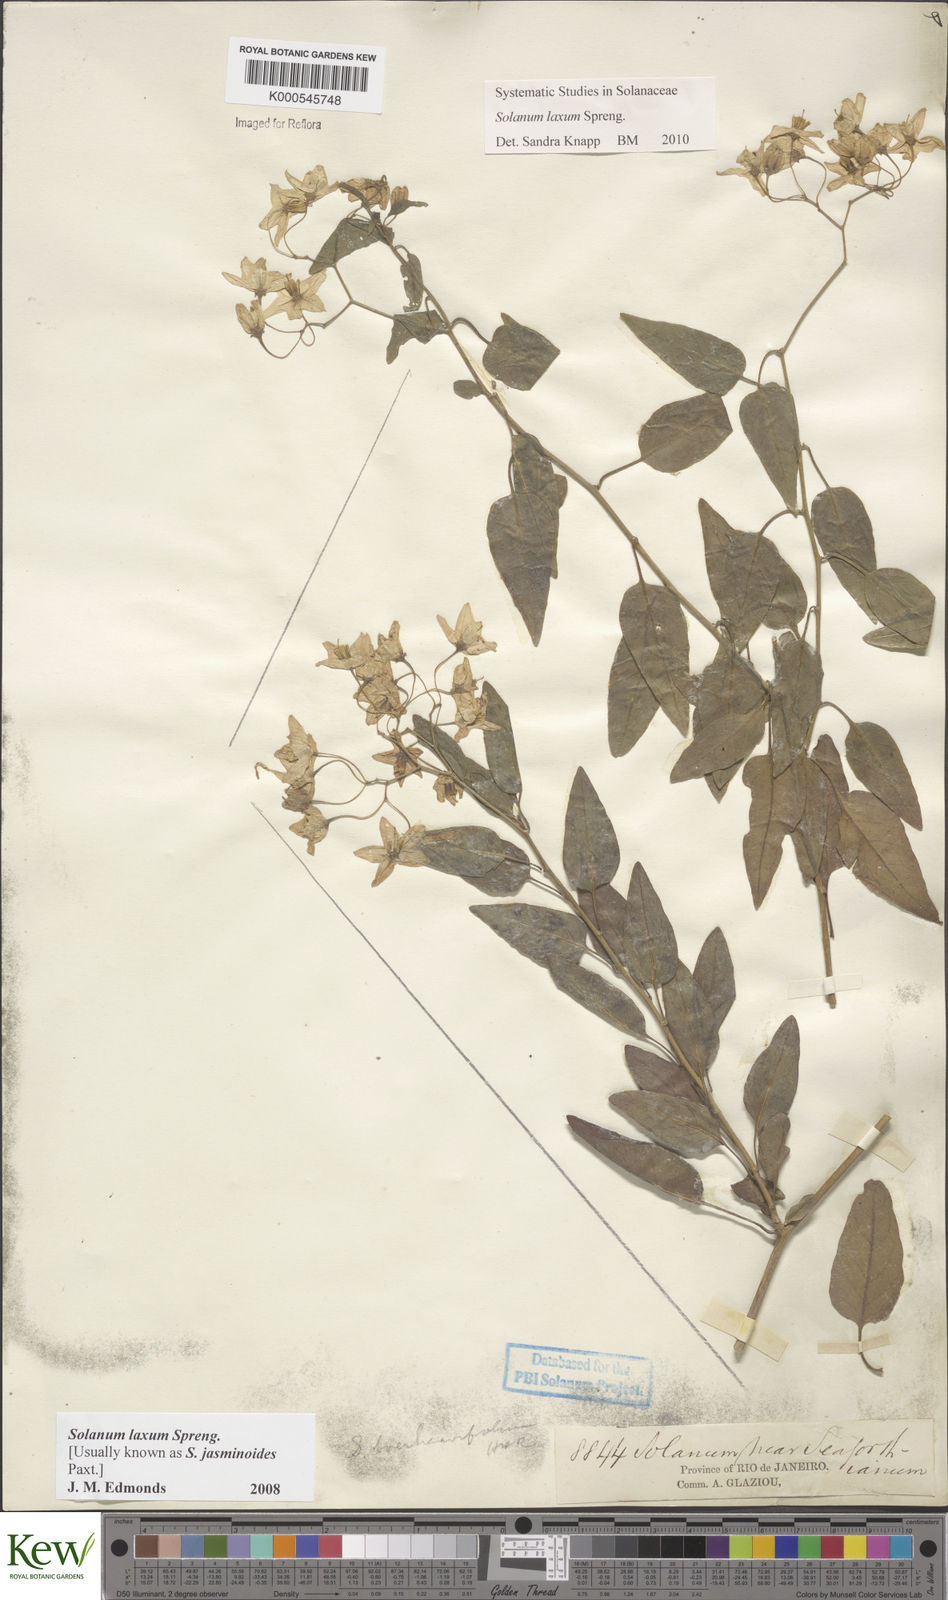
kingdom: Plantae
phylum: Tracheophyta
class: Magnoliopsida
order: Solanales
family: Solanaceae
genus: Solanum
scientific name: Solanum laxum
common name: Nightshade
